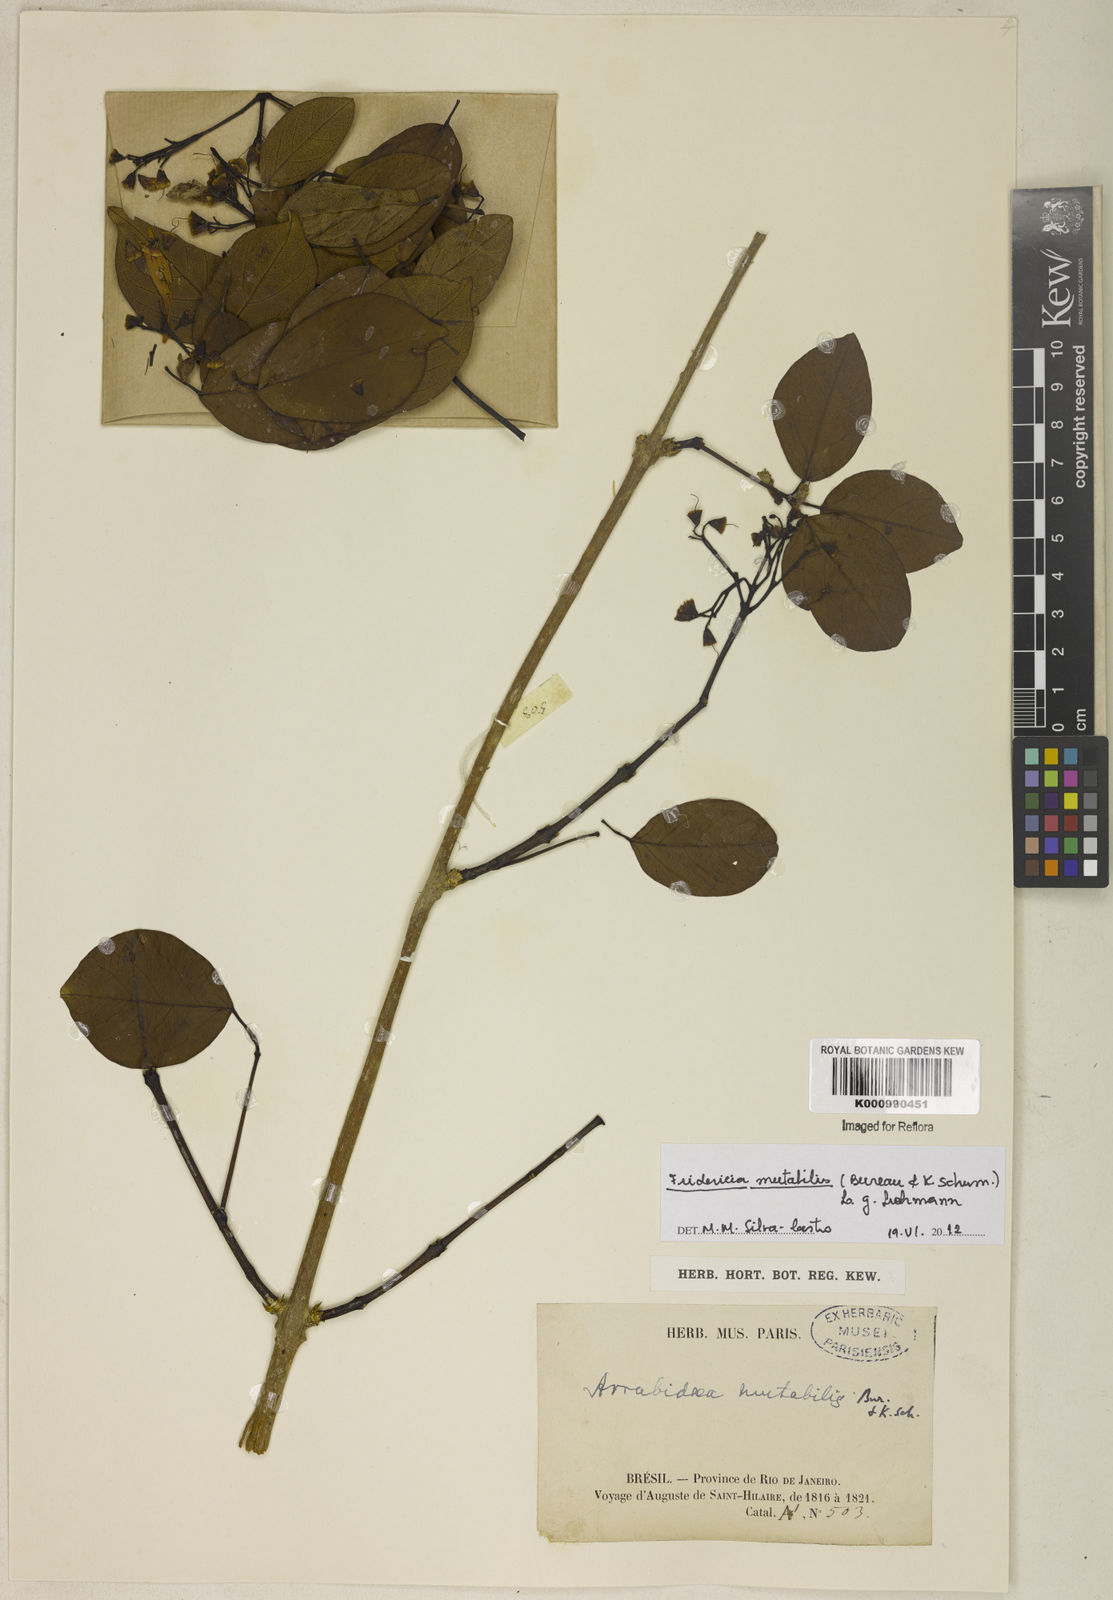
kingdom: Plantae
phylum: Tracheophyta
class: Magnoliopsida
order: Lamiales
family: Bignoniaceae
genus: Fridericia
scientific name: Fridericia
